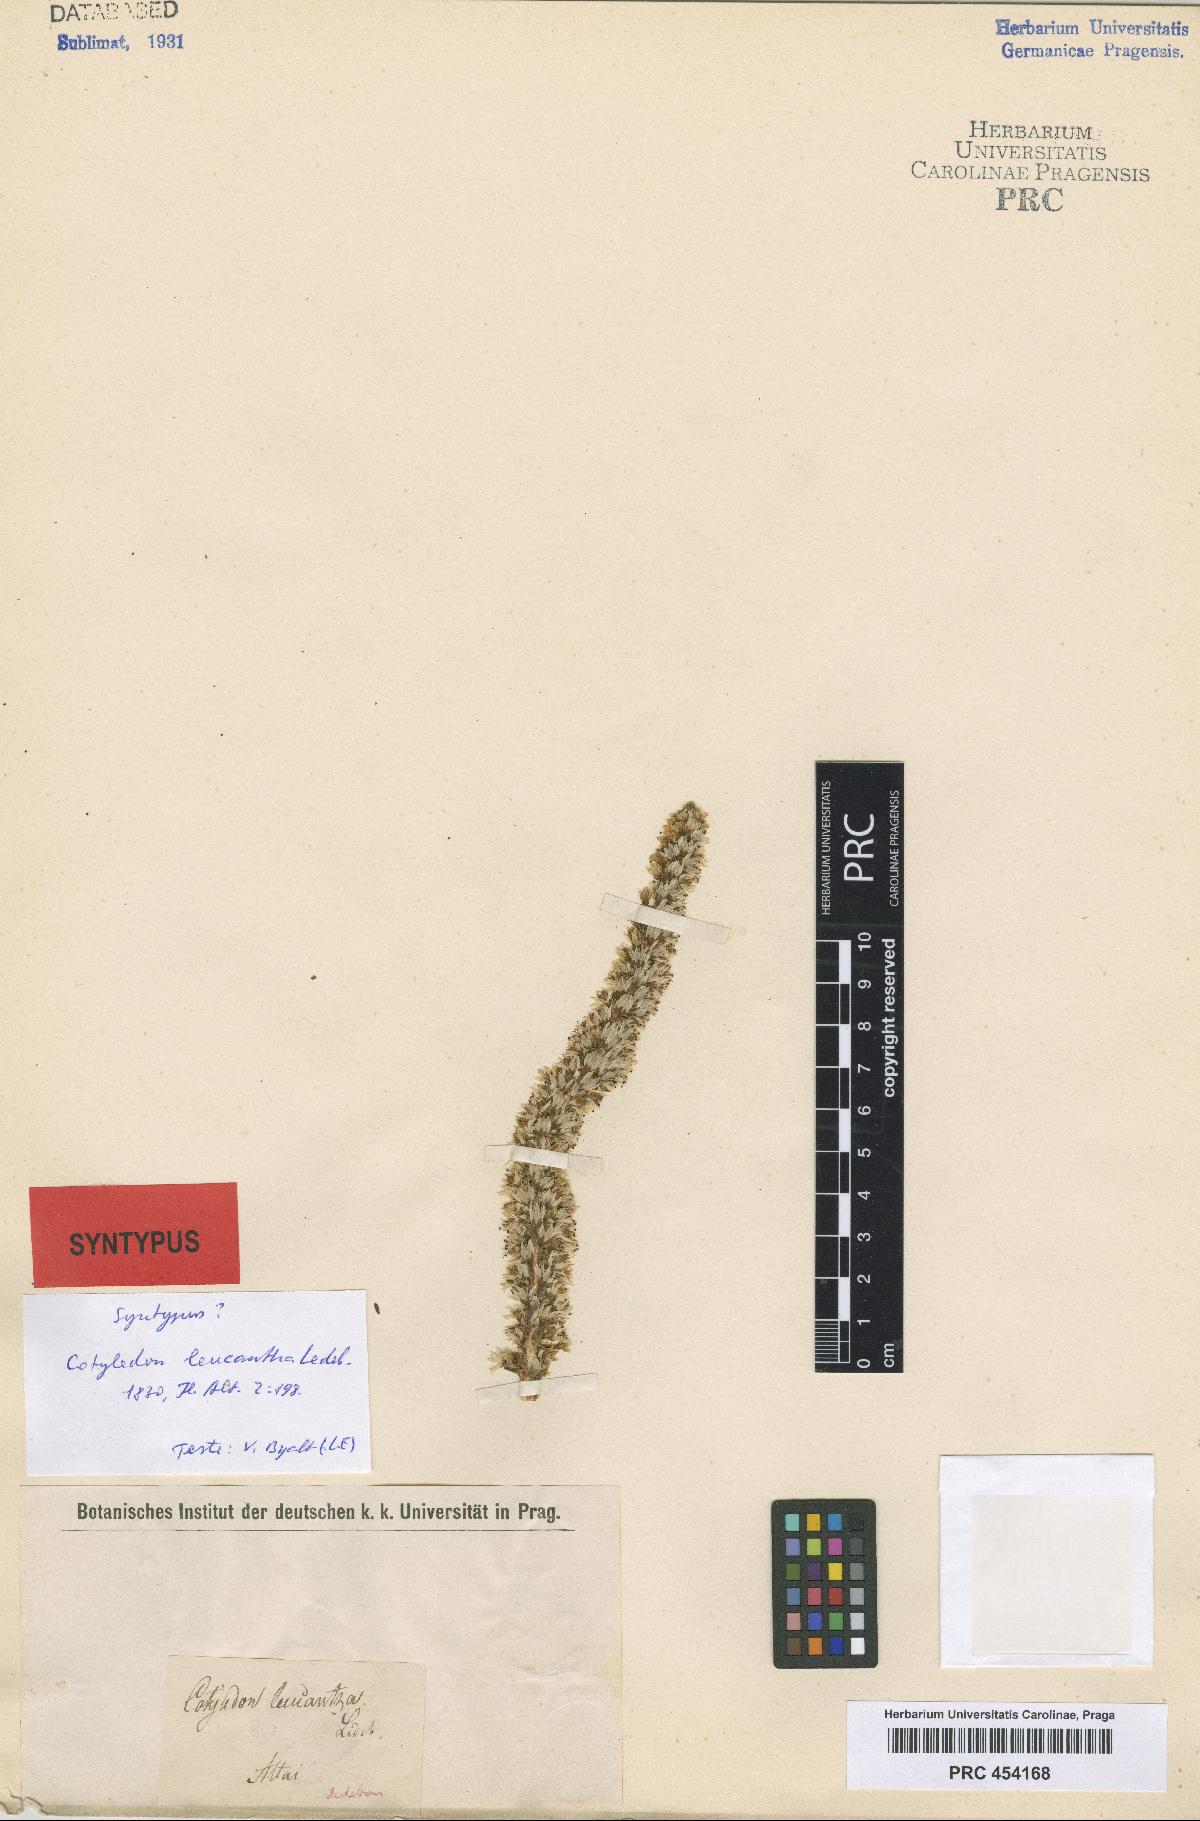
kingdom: Plantae
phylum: Tracheophyta
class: Magnoliopsida
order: Saxifragales
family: Crassulaceae
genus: Orostachys
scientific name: Orostachys thyrsiflora
